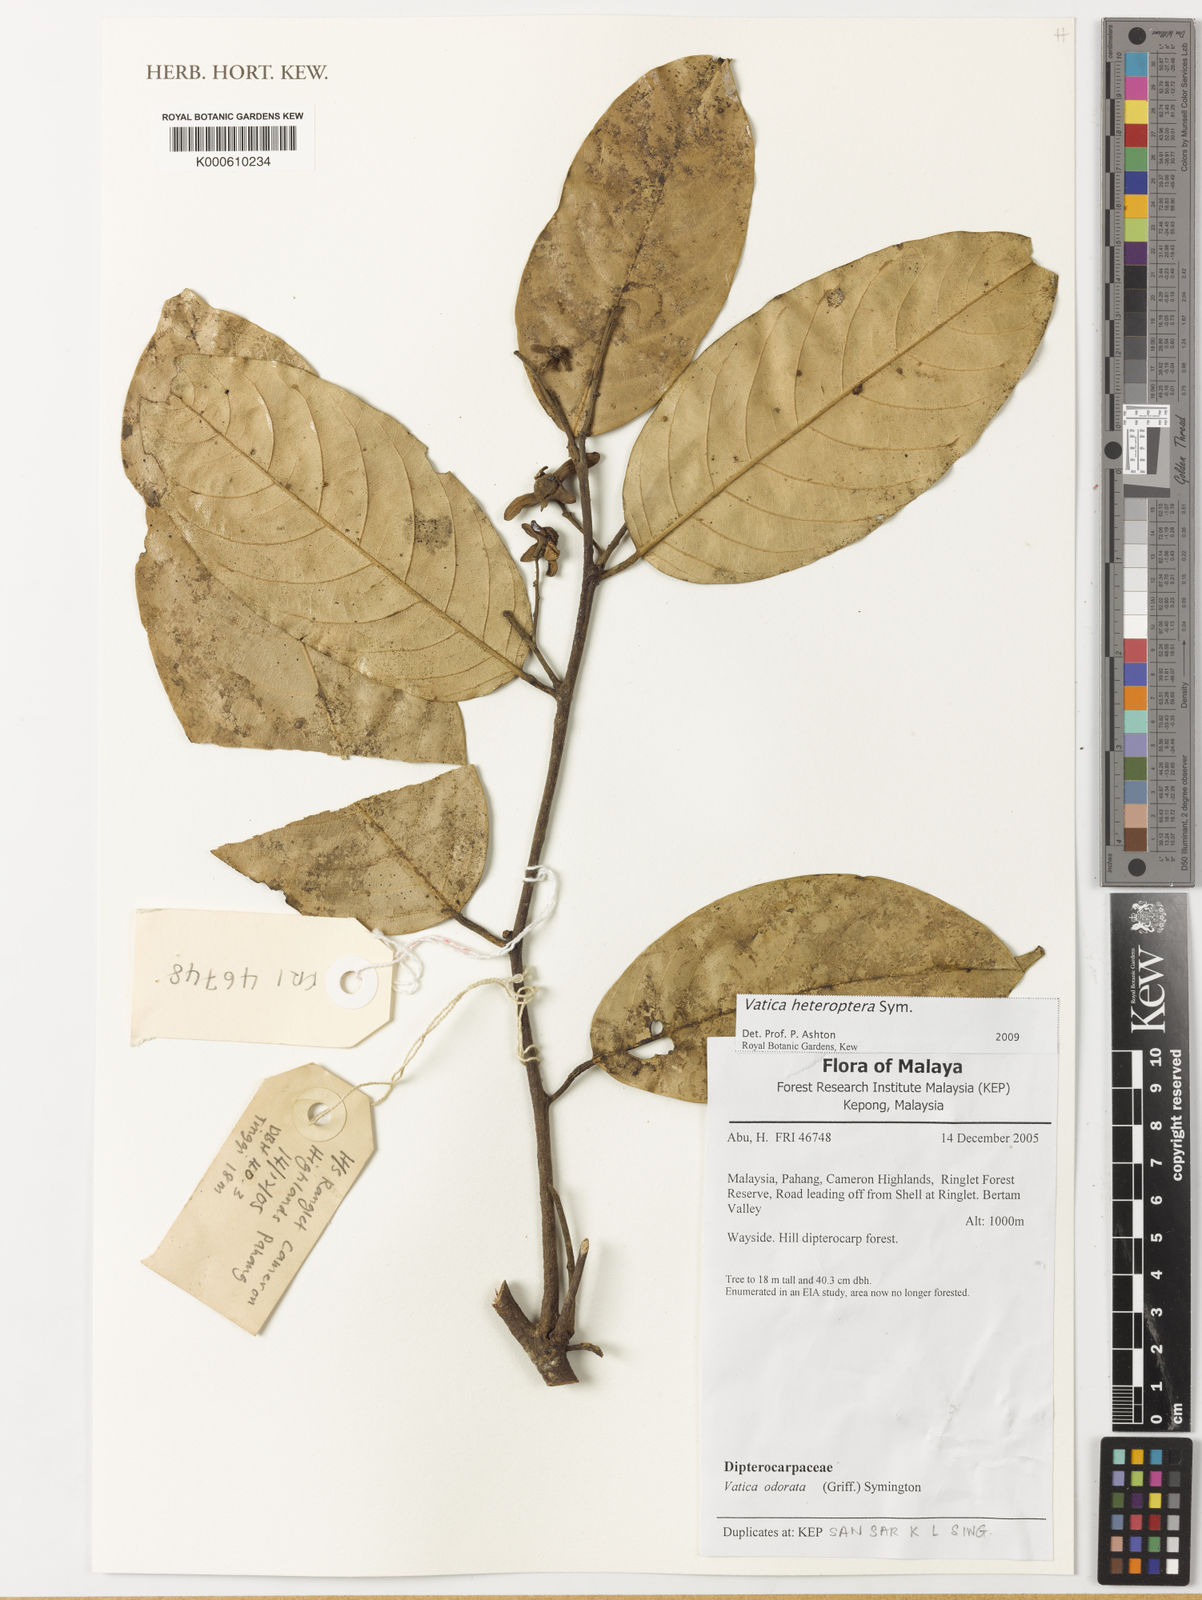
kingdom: Plantae
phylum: Tracheophyta
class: Magnoliopsida
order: Malvales
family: Dipterocarpaceae
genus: Vatica
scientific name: Vatica heteroptera
